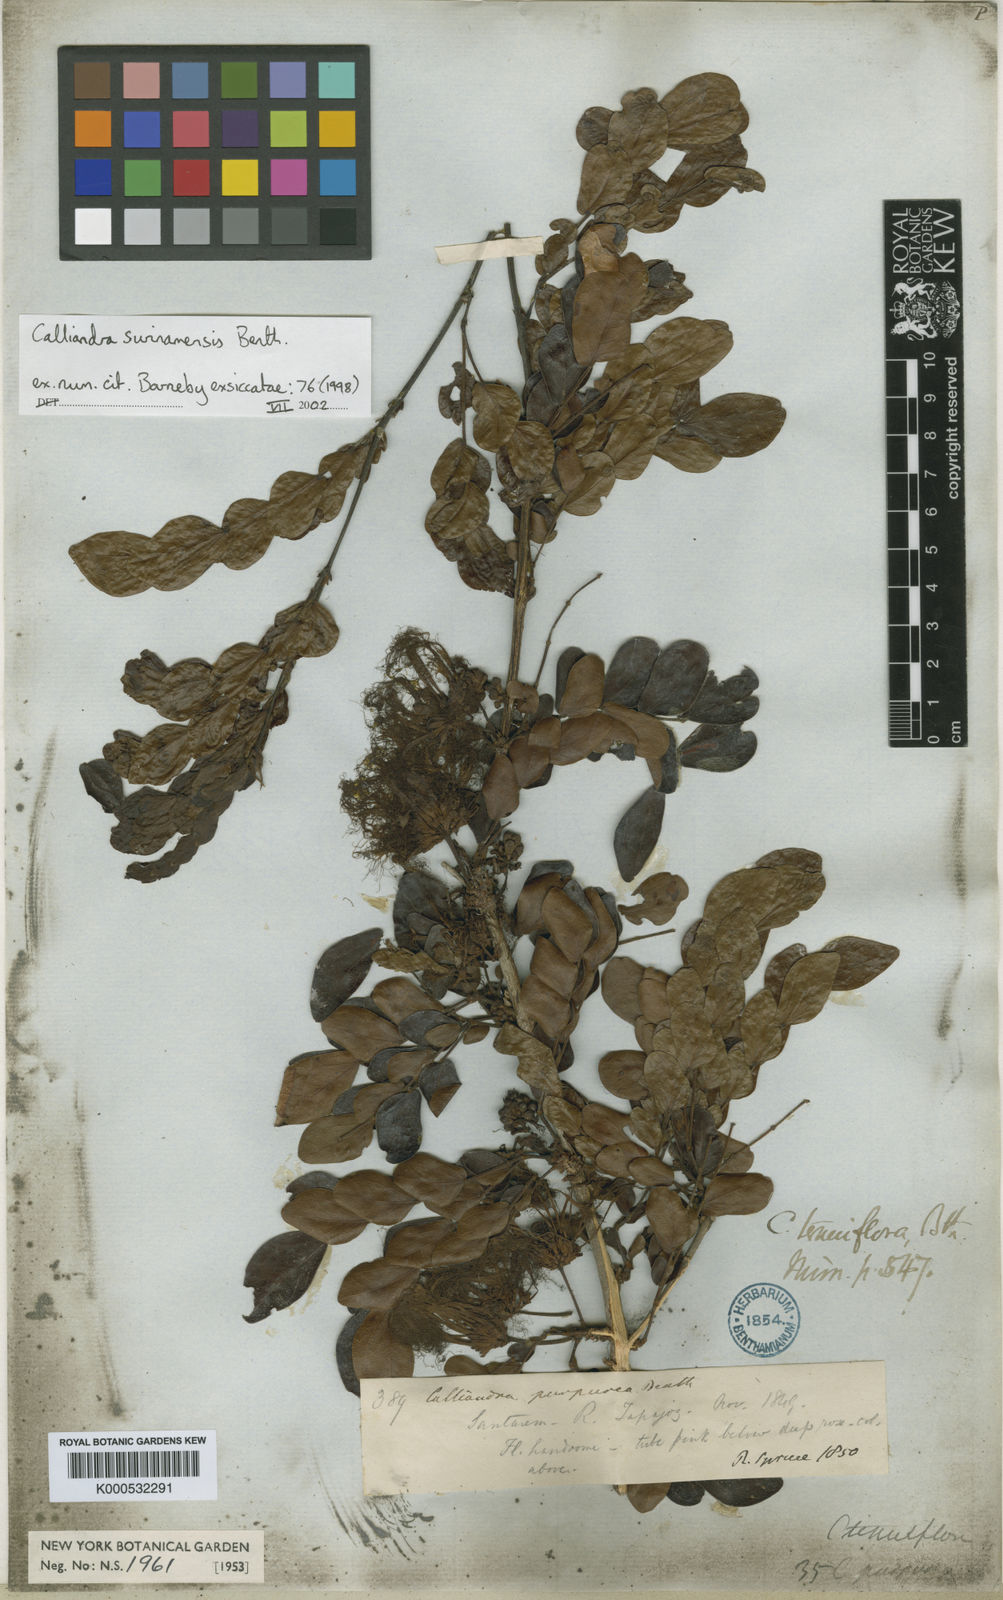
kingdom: Plantae
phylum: Tracheophyta
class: Magnoliopsida
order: Fabales
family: Fabaceae
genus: Calliandra
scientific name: Calliandra surinamensis
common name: Pink powder puff
